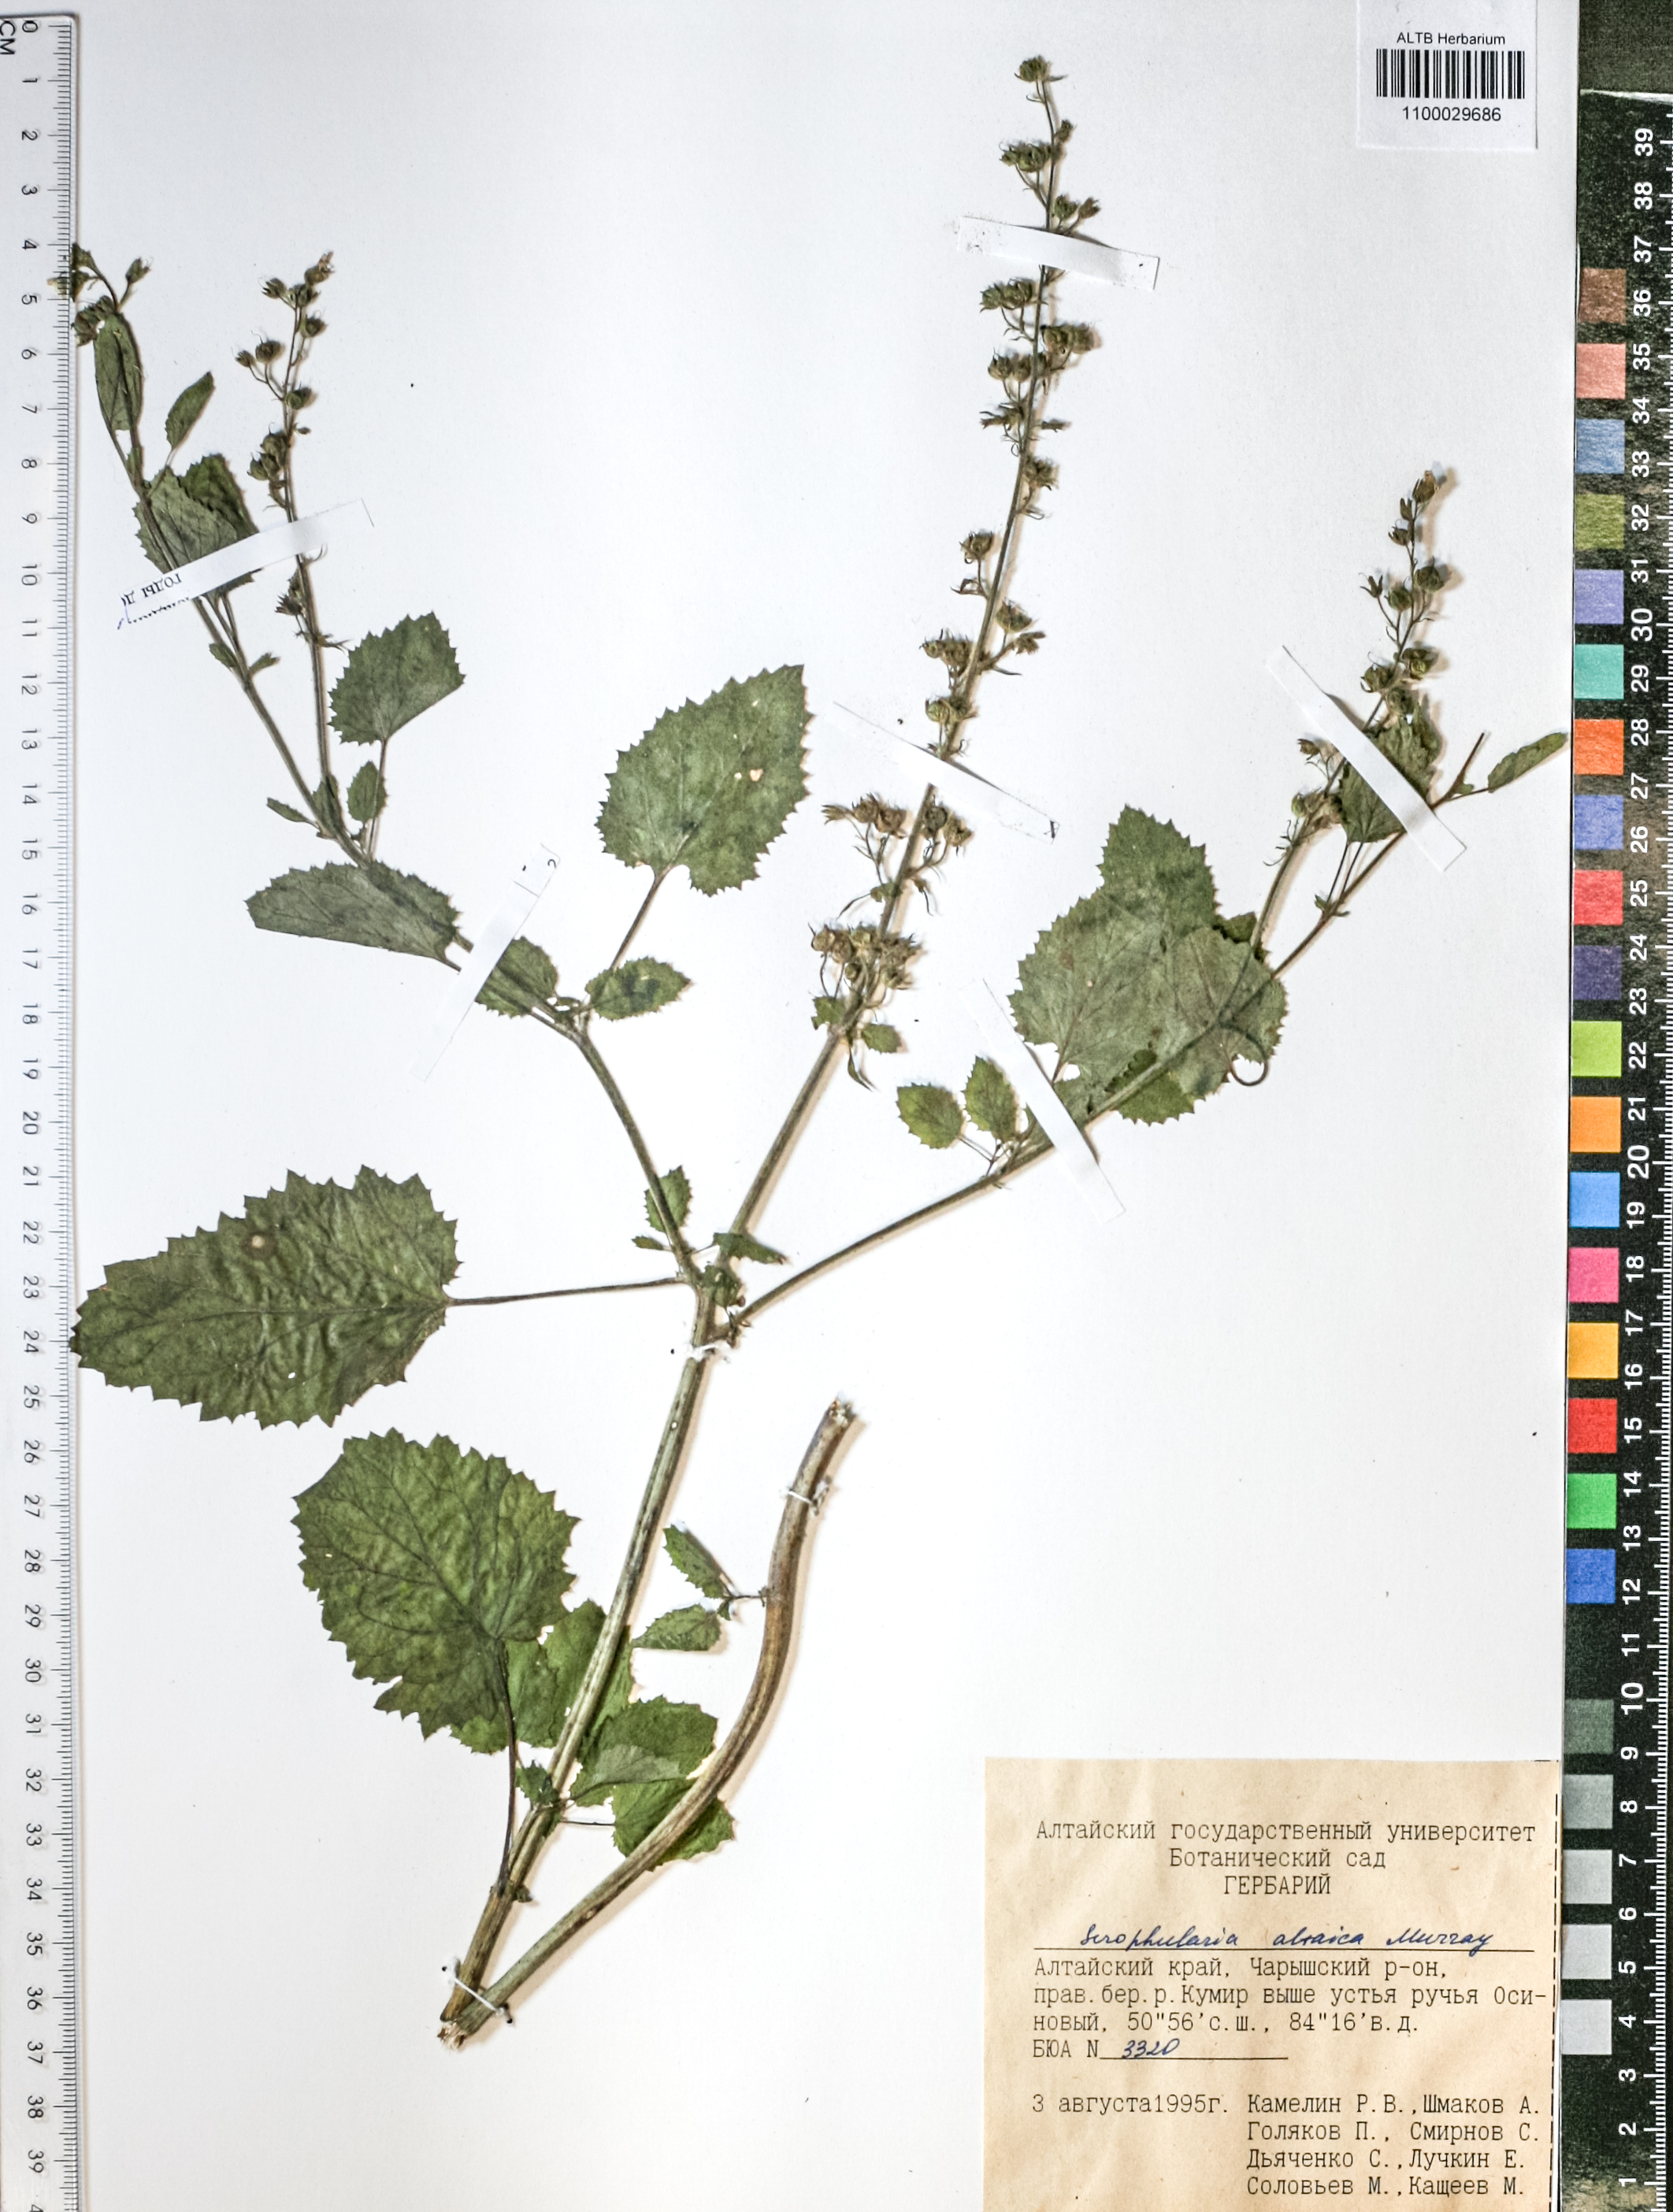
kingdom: Plantae
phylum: Tracheophyta
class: Magnoliopsida
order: Lamiales
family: Scrophulariaceae
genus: Scrophularia
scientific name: Scrophularia altaica
